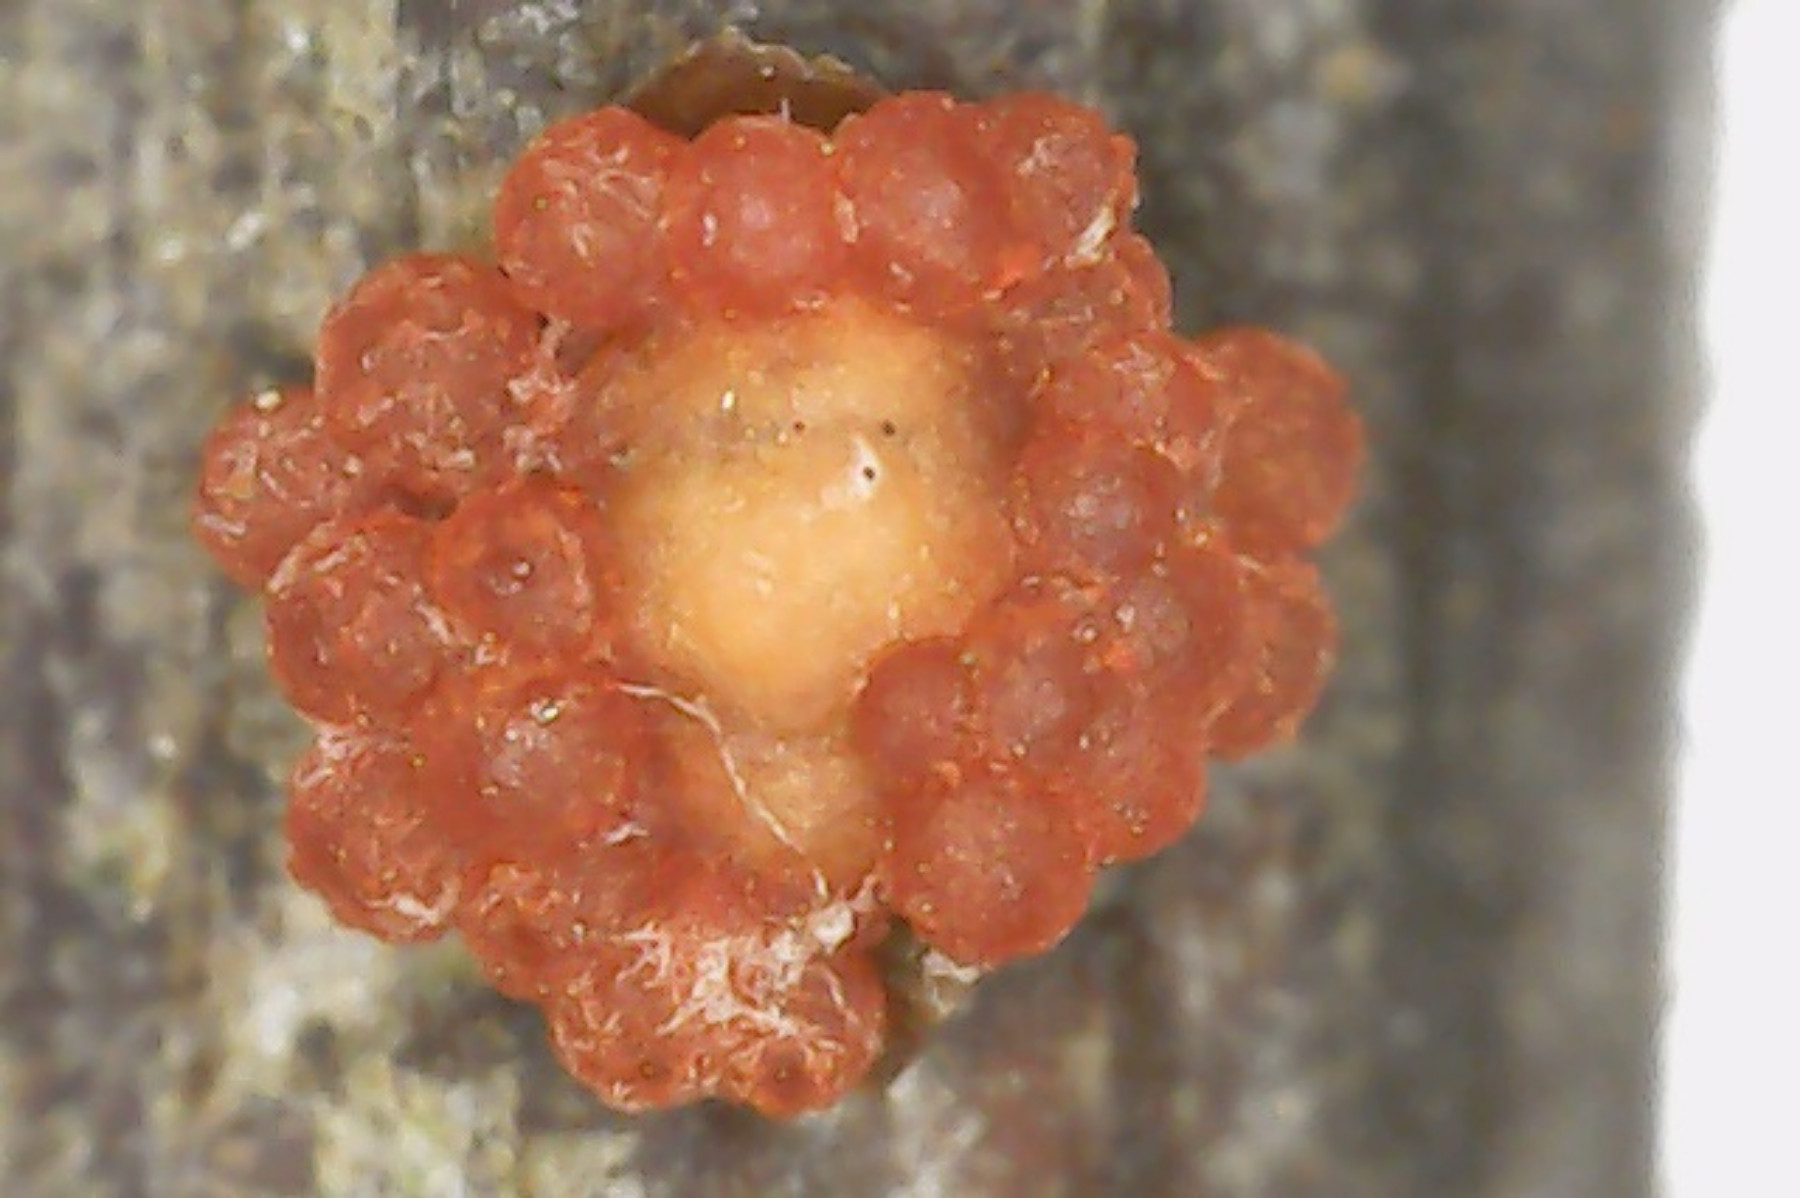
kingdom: Fungi
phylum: Ascomycota
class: Sordariomycetes
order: Hypocreales
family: Nectriaceae
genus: Nectria
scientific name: Nectria cinnabarina
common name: almindelig cinnobersvamp
